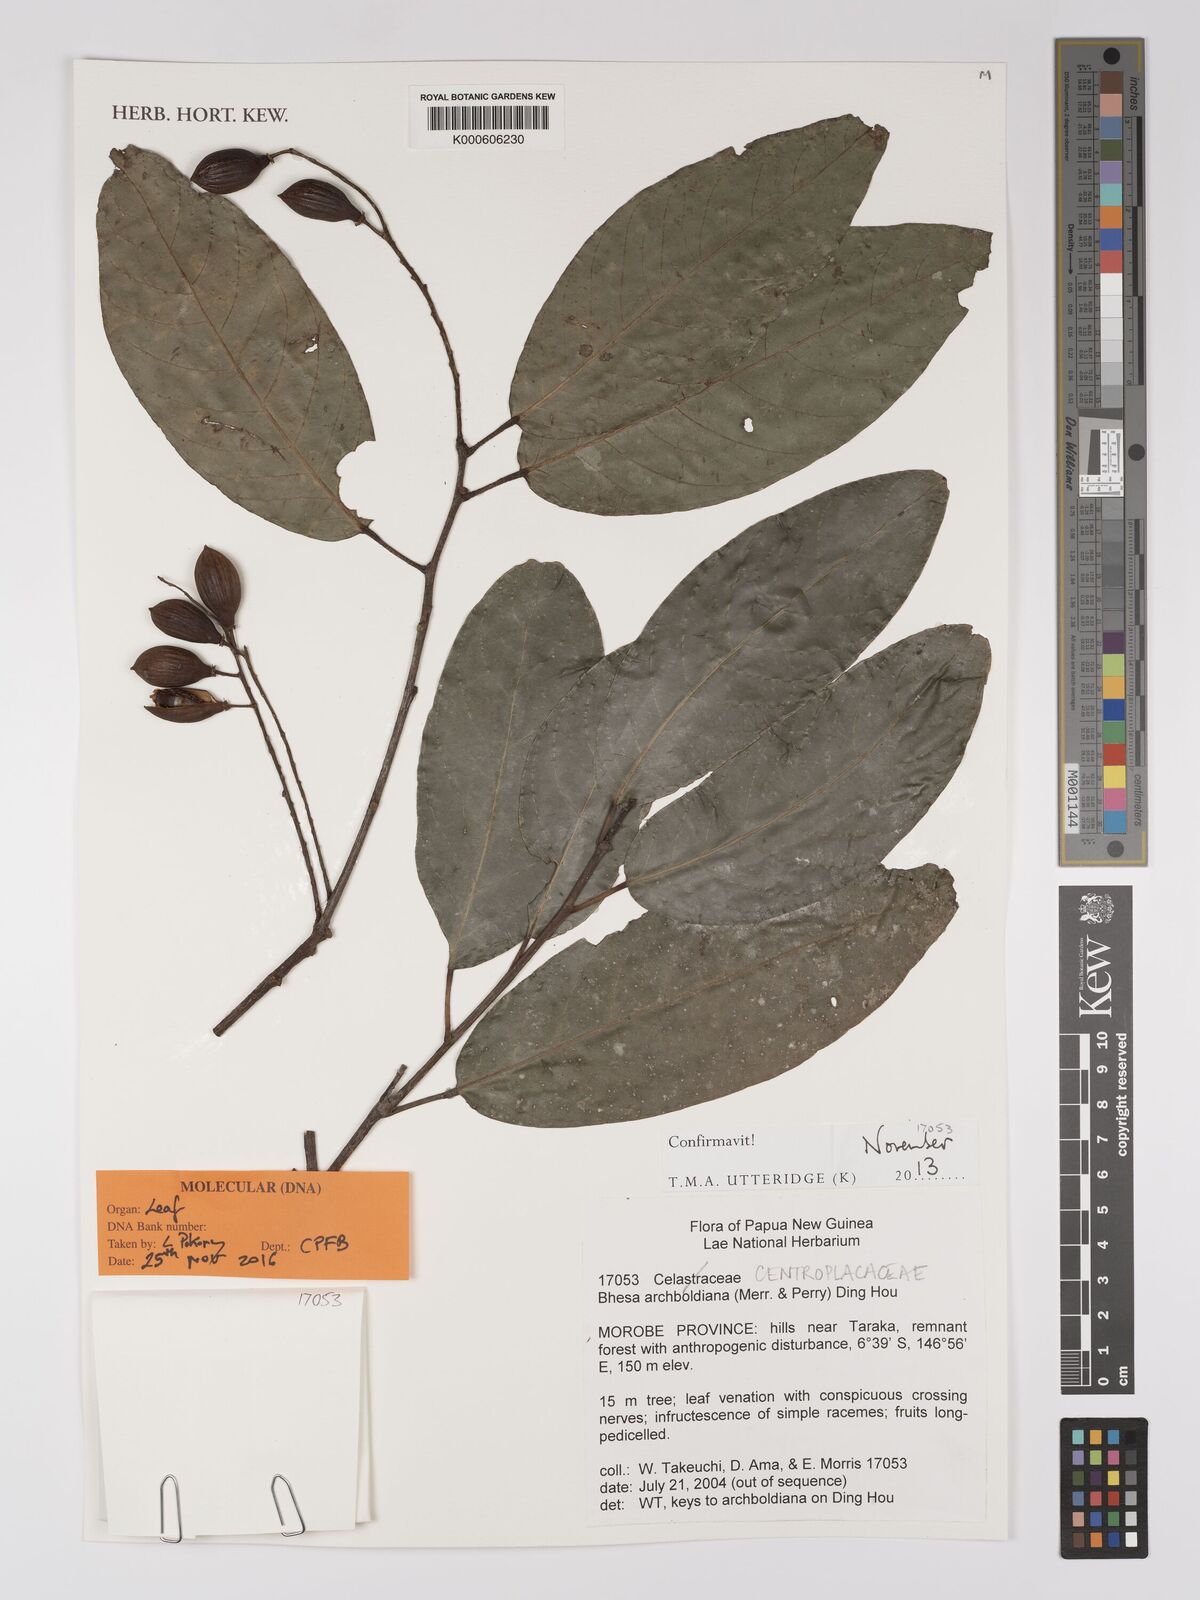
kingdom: Plantae
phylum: Tracheophyta
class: Magnoliopsida
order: Malpighiales
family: Centroplacaceae
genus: Bhesa
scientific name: Bhesa archboldiana
